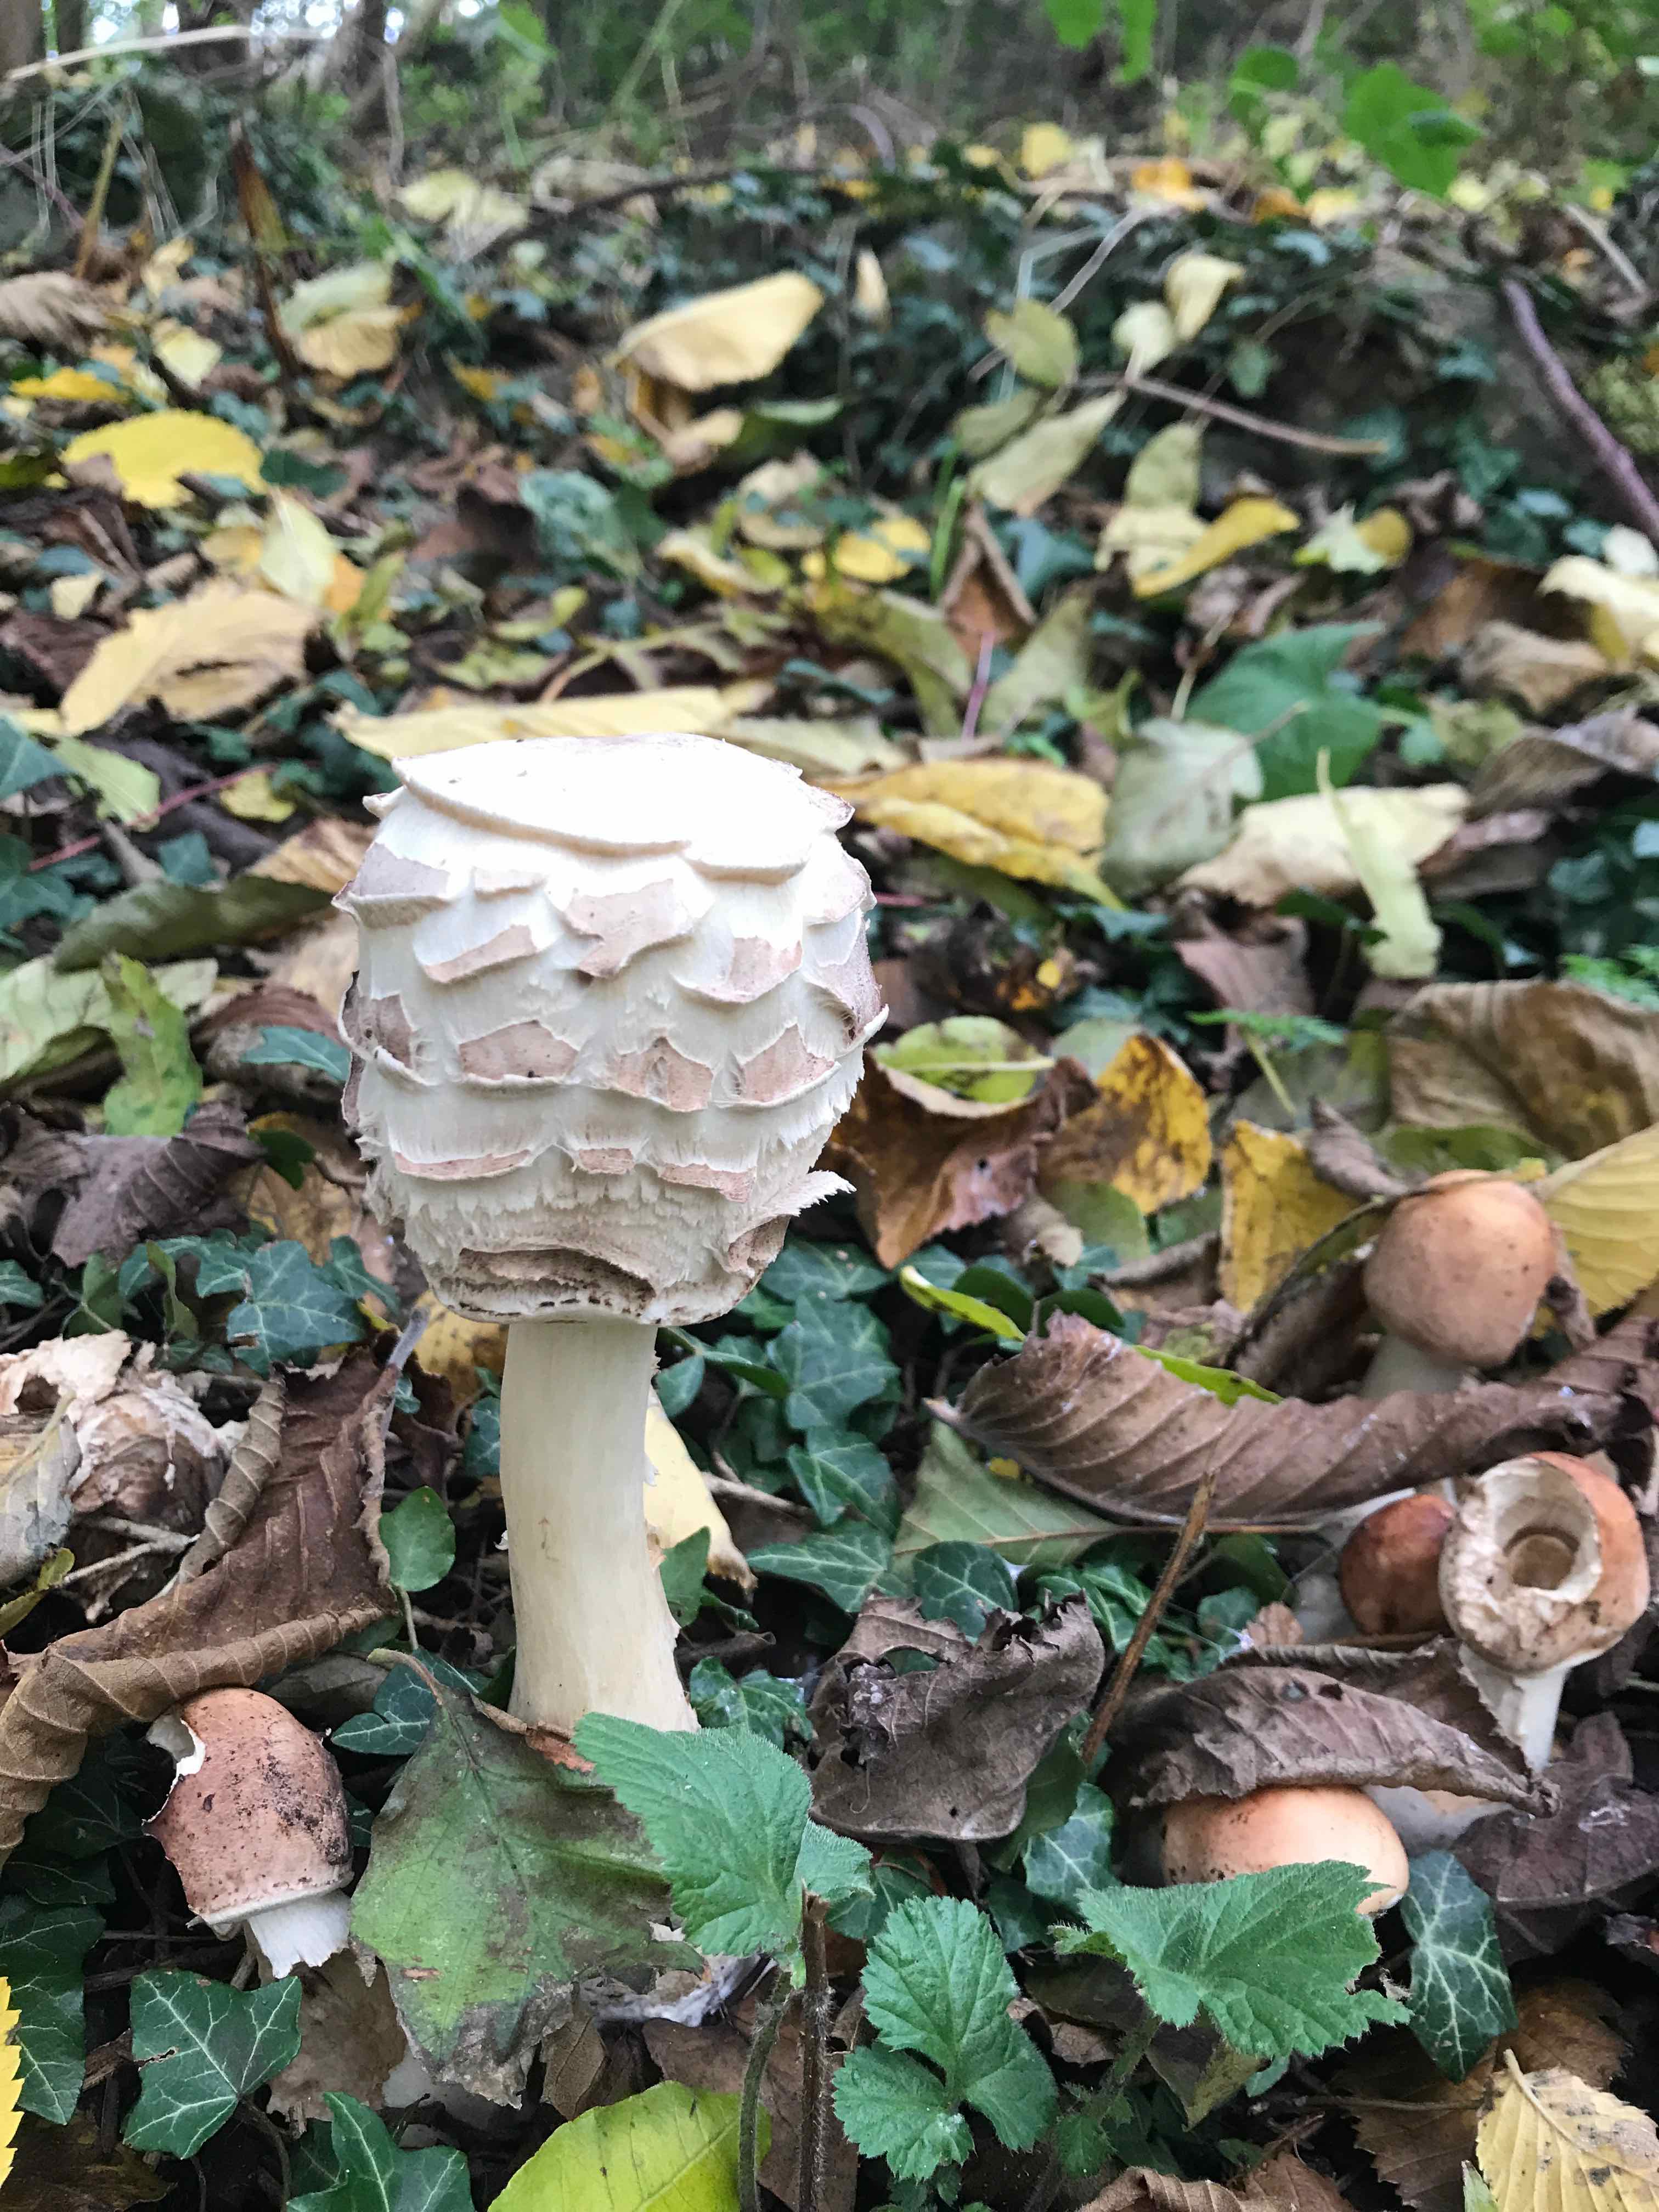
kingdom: Fungi
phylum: Basidiomycota
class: Agaricomycetes
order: Agaricales
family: Agaricaceae
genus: Chlorophyllum
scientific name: Chlorophyllum
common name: rabarberhat
